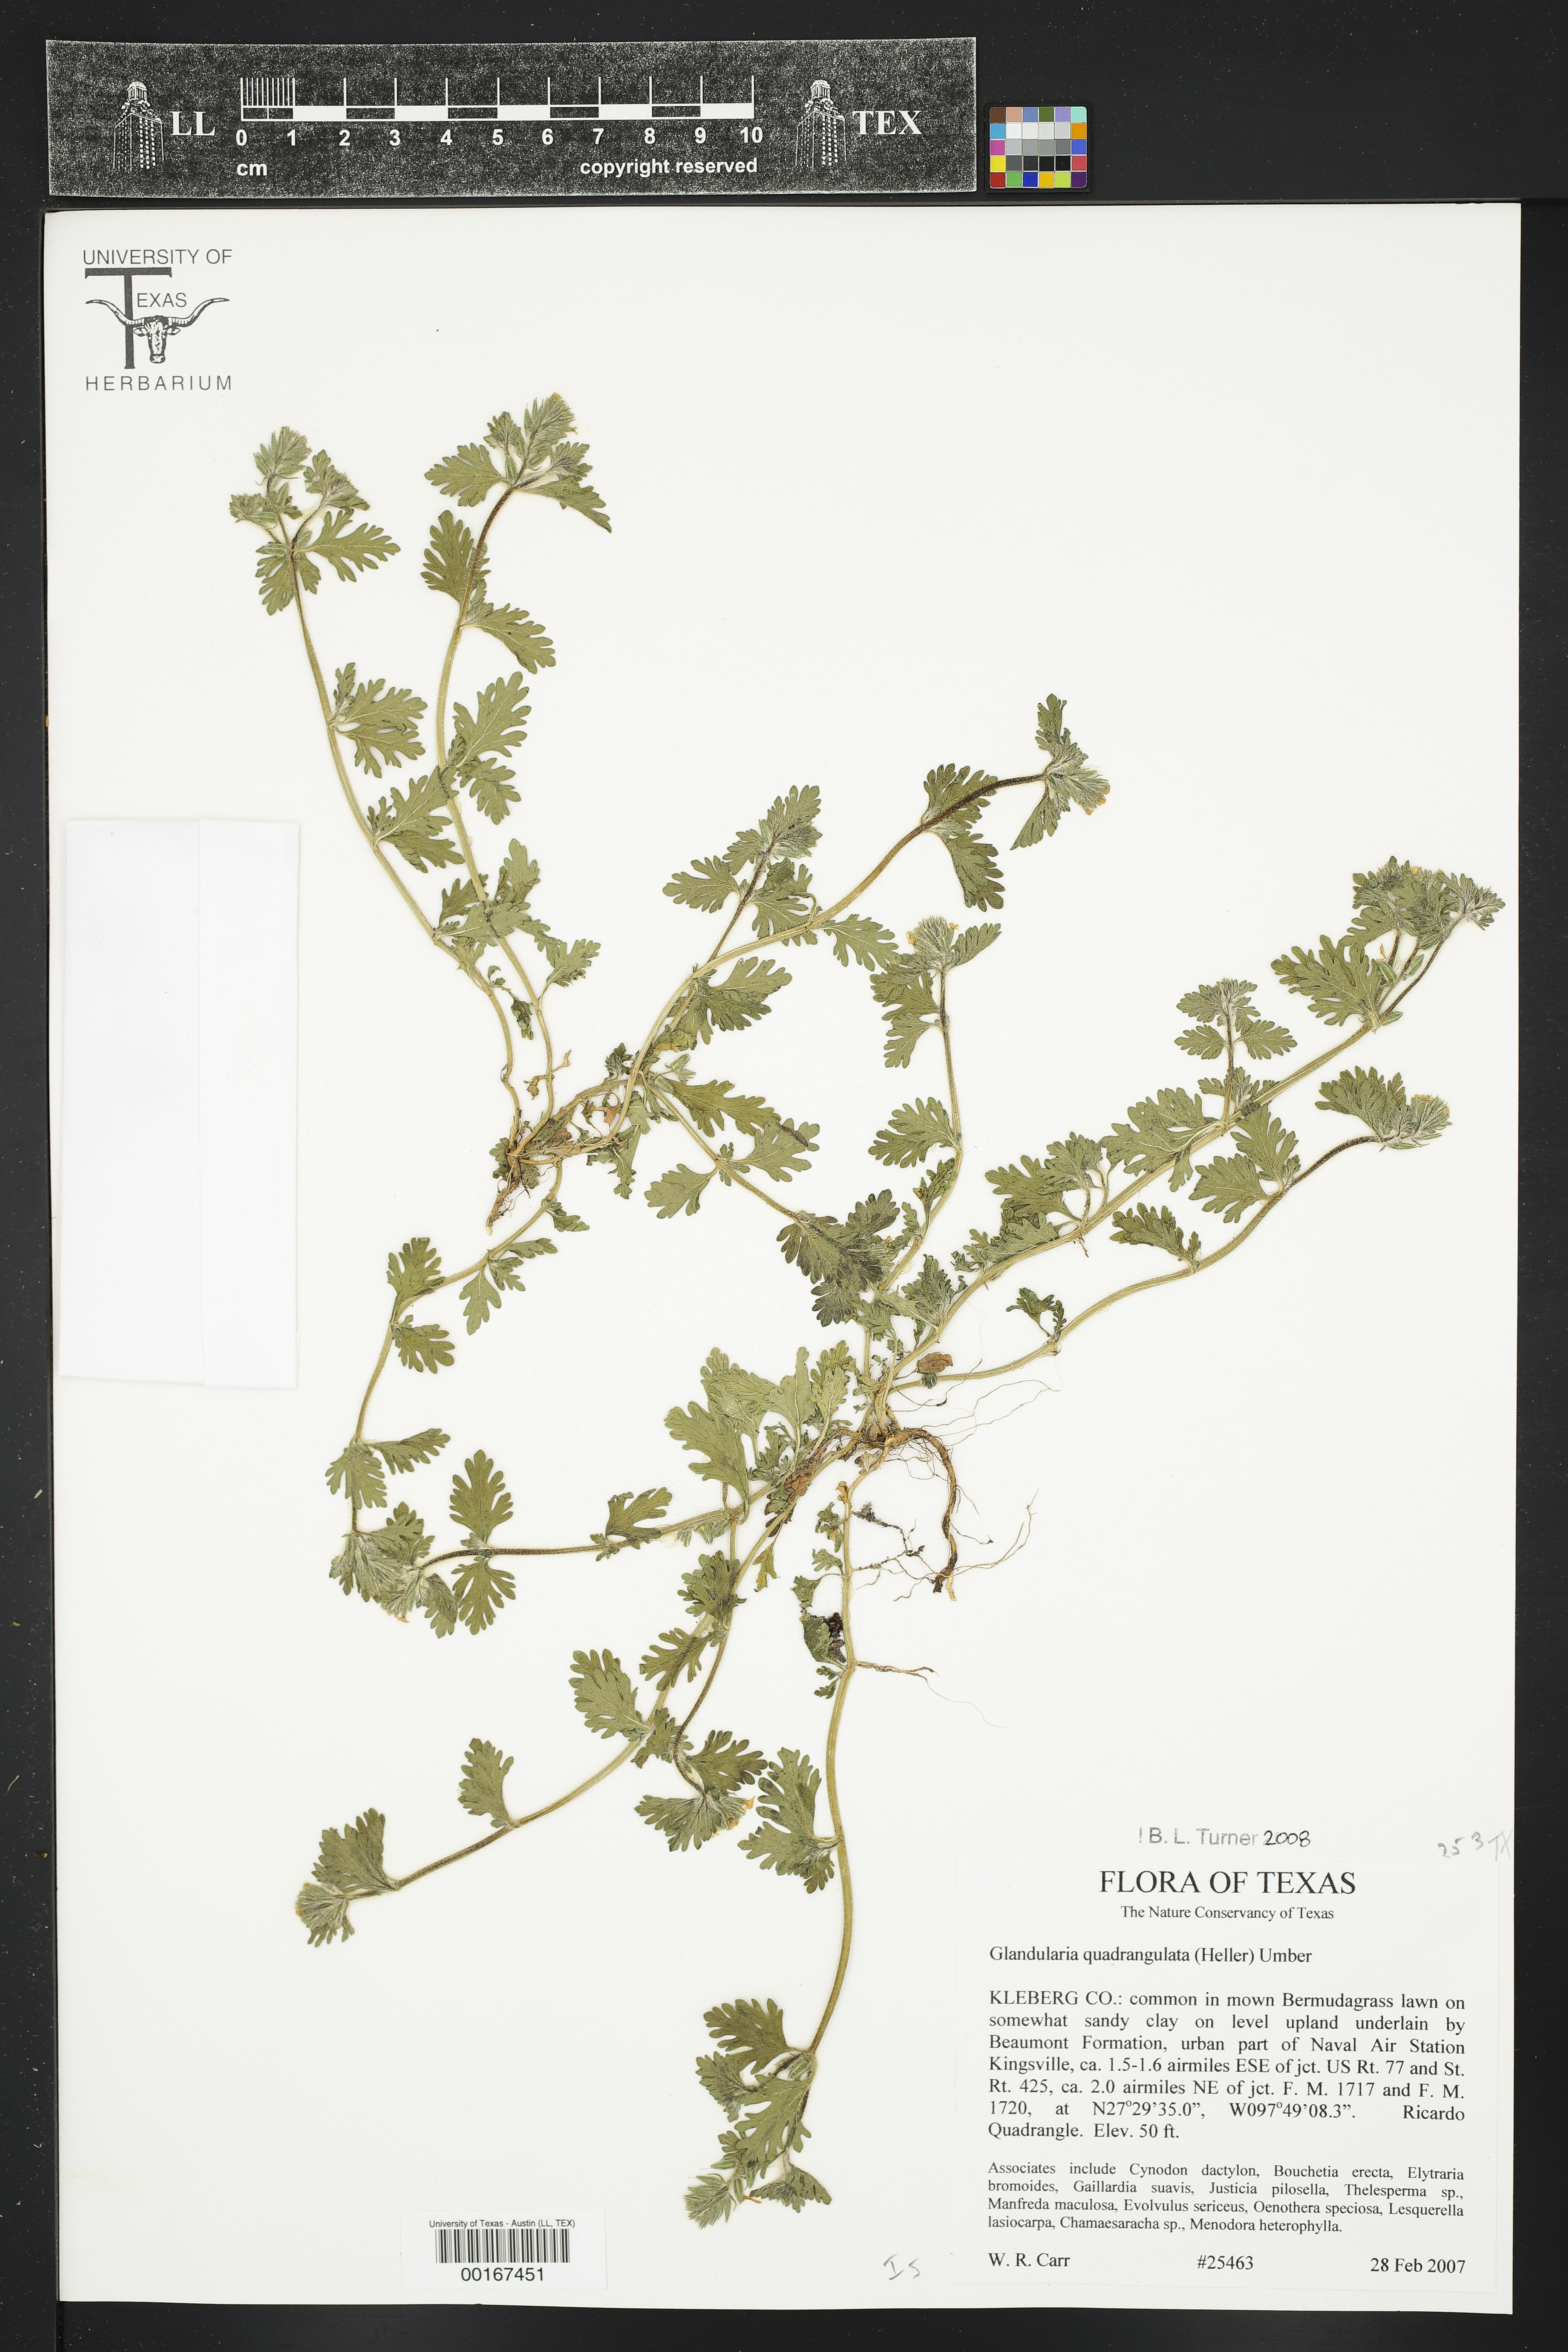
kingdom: Plantae
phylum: Tracheophyta
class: Magnoliopsida
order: Lamiales
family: Verbenaceae
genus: Verbena
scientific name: Verbena quadrangulata
